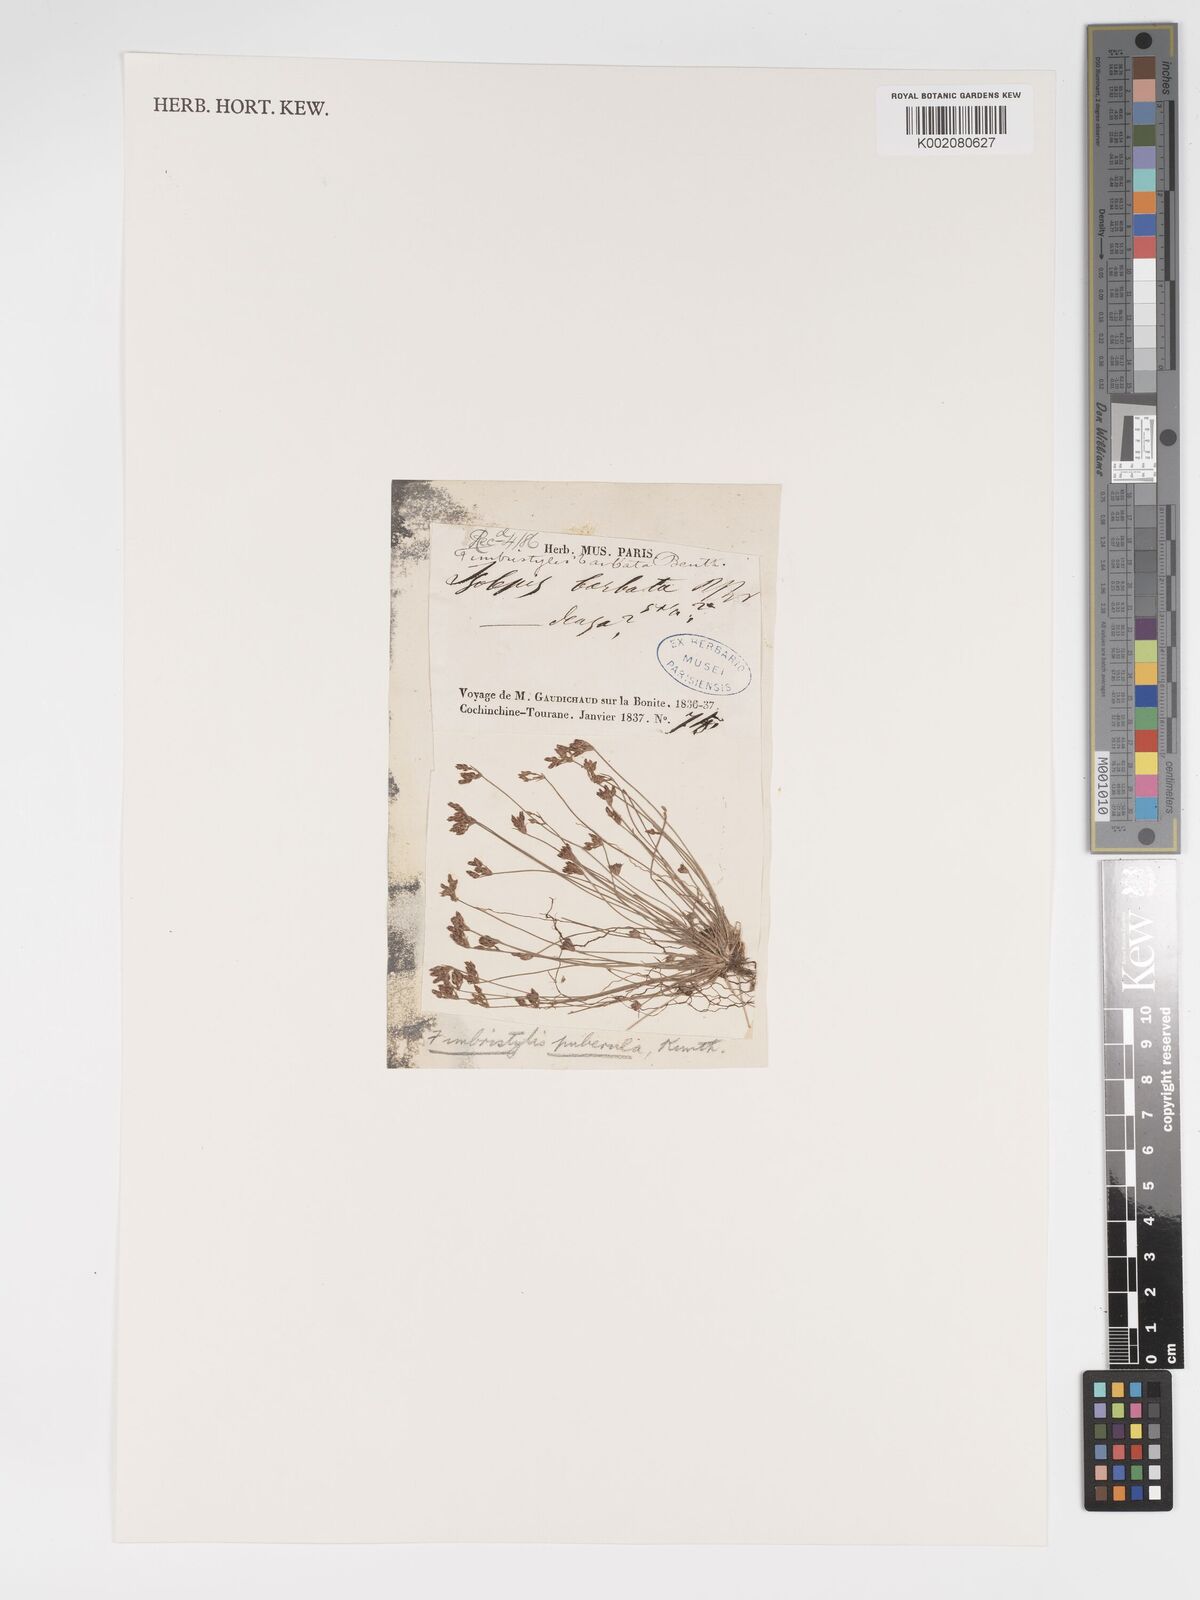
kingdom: Plantae
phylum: Tracheophyta
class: Liliopsida
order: Poales
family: Cyperaceae
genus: Bulbostylis
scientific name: Bulbostylis thouarsii
